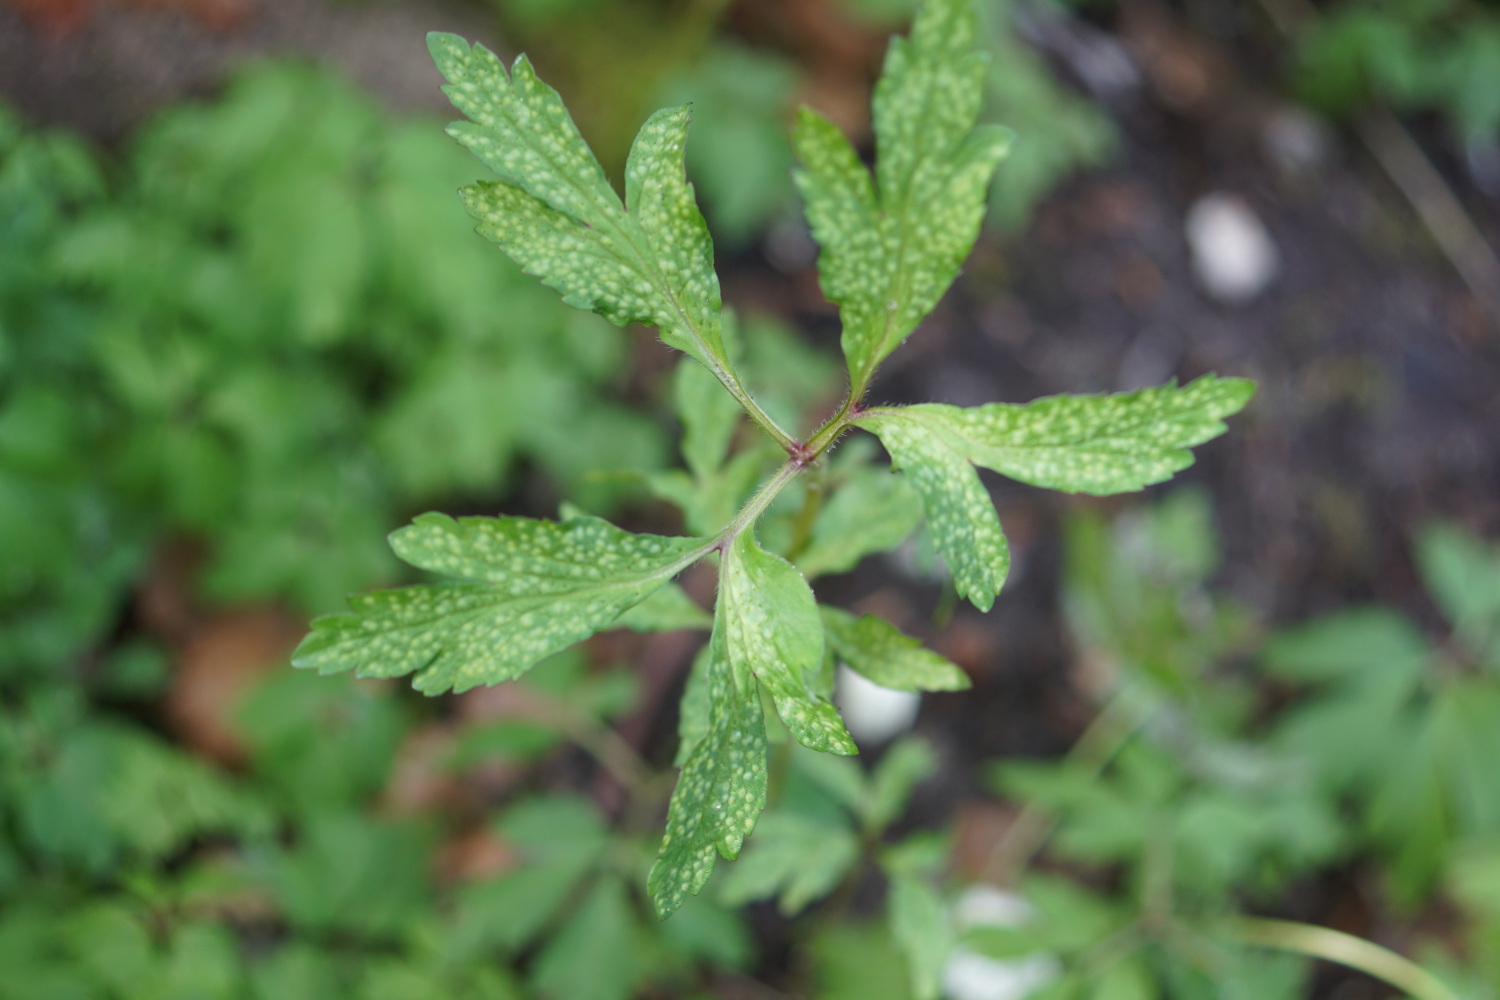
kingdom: Fungi
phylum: Basidiomycota
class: Pucciniomycetes
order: Pucciniales
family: Ochropsoraceae
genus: Ochropsora
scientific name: Ochropsora ariae
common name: anemone-okkerpletrust
